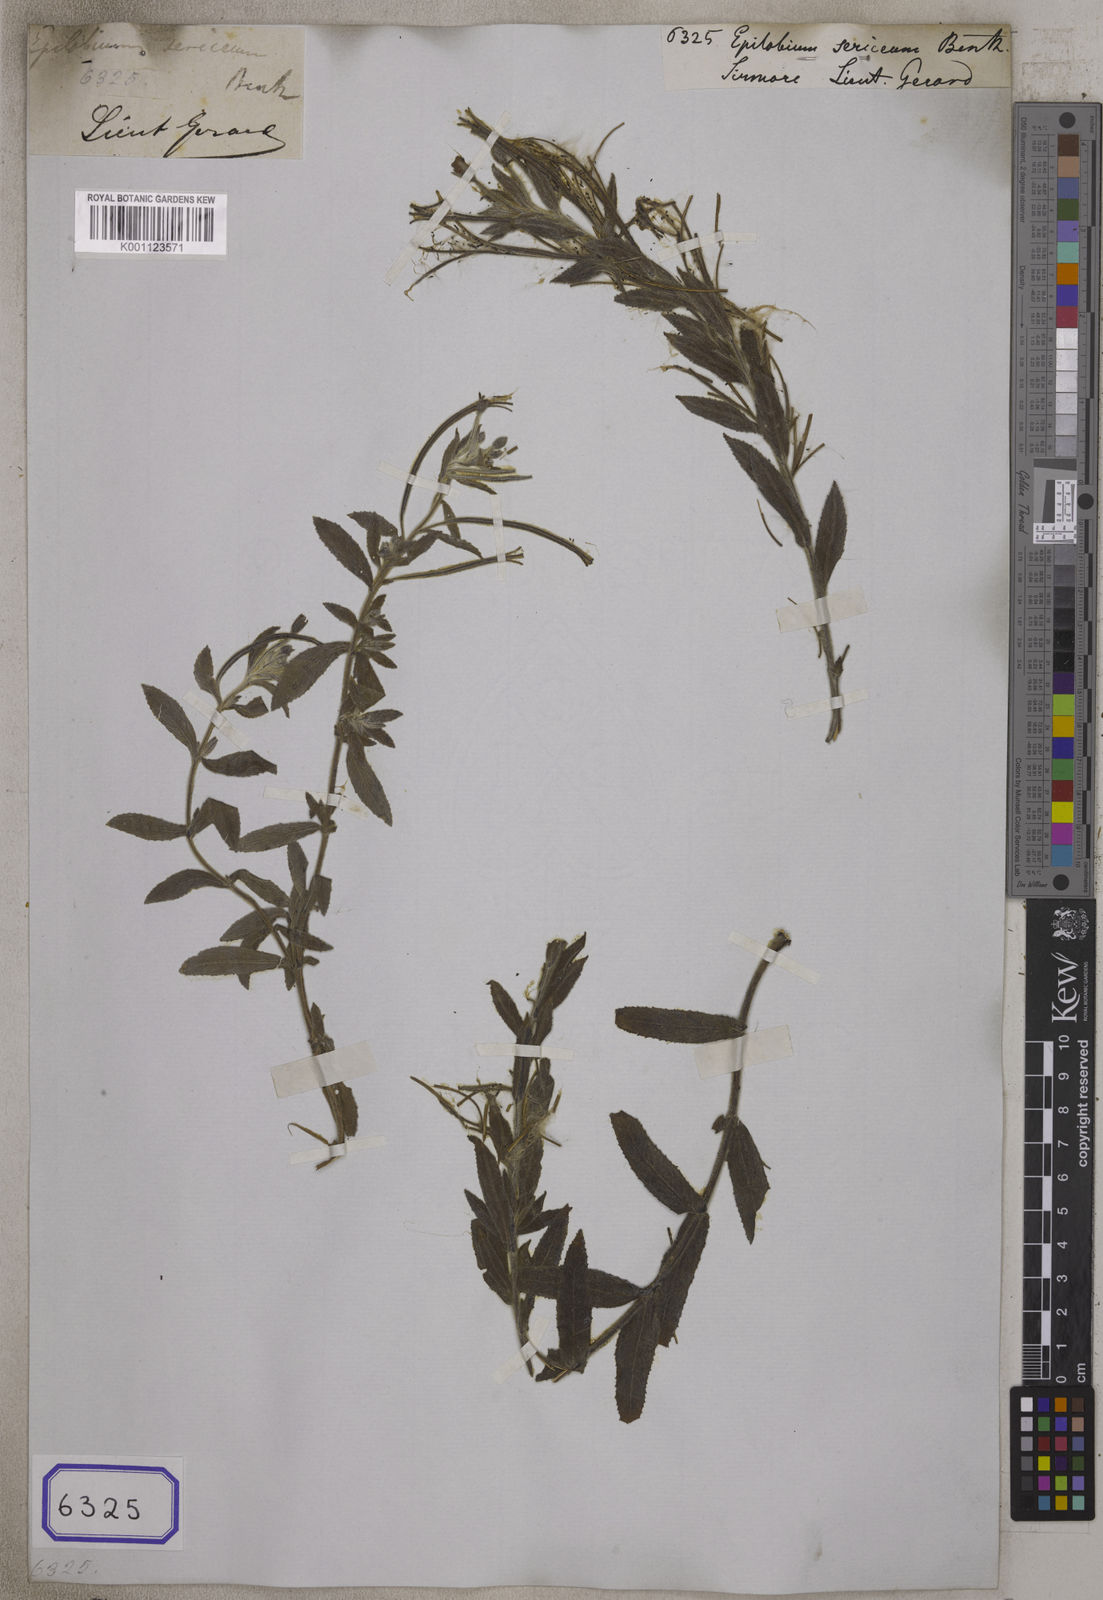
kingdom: Plantae
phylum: Tracheophyta
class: Magnoliopsida
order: Myrtales
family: Onagraceae
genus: Epilobium
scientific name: Epilobium
